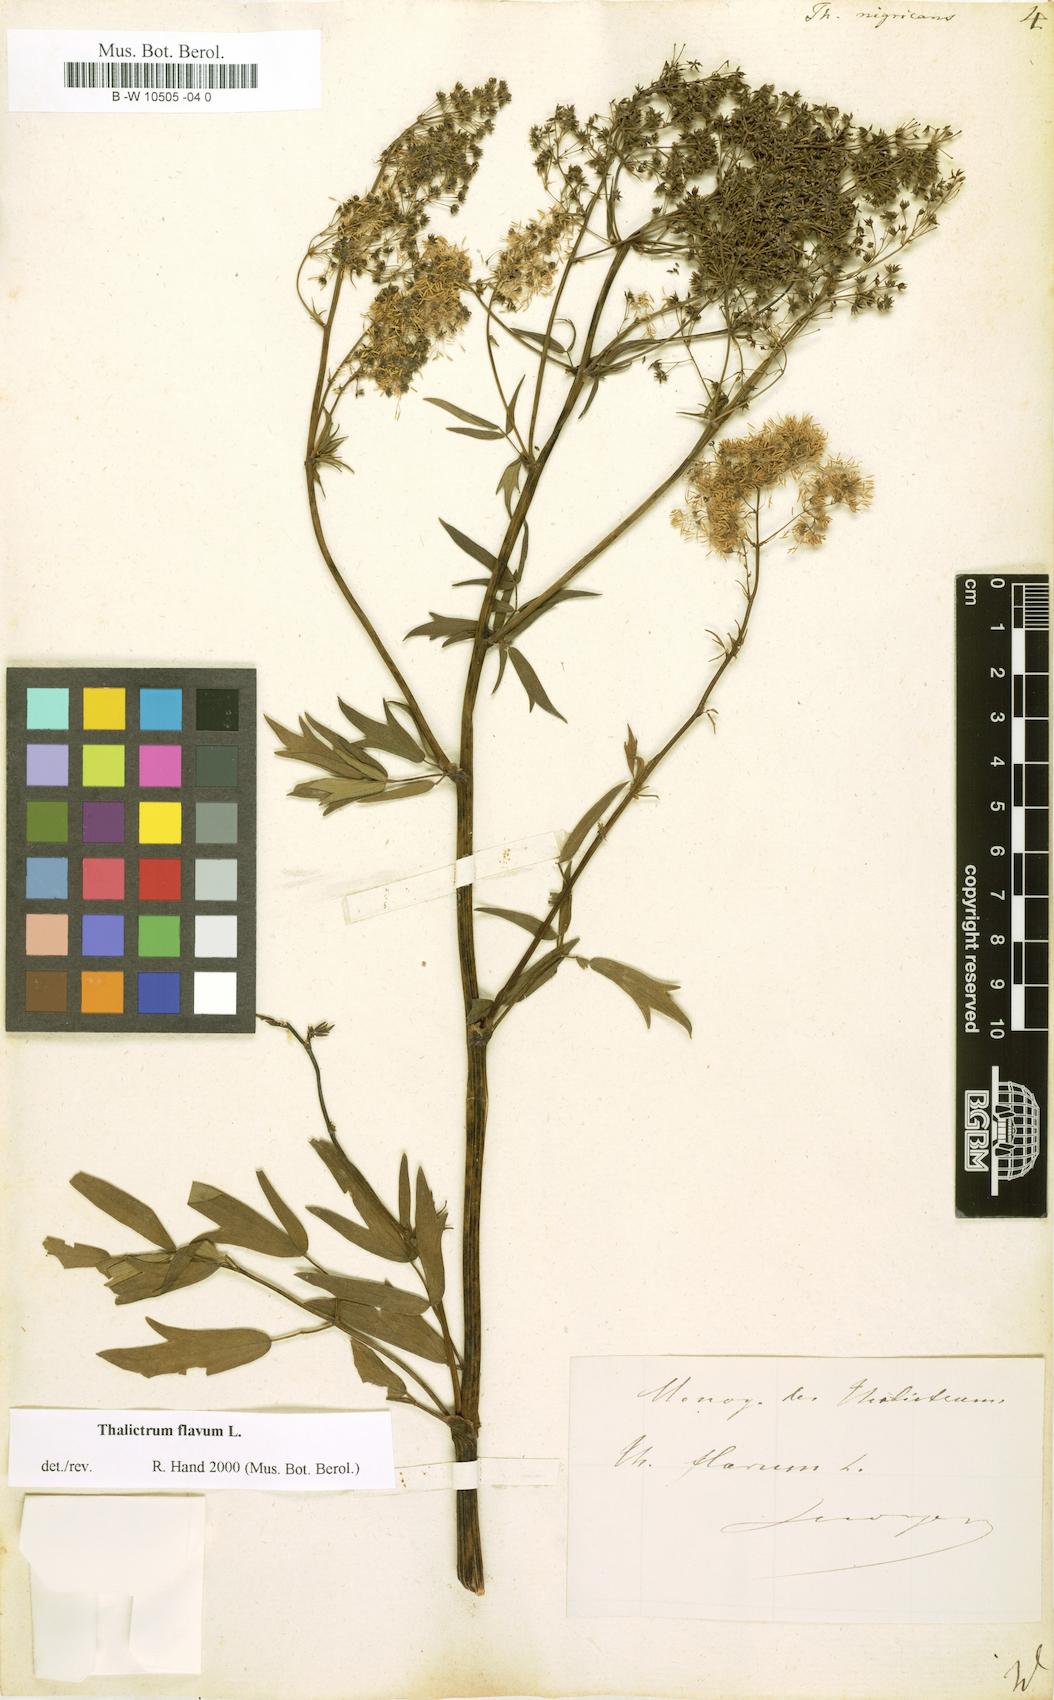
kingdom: Plantae
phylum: Tracheophyta
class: Magnoliopsida
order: Ranunculales
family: Ranunculaceae
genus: Thalictrum
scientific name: Thalictrum
